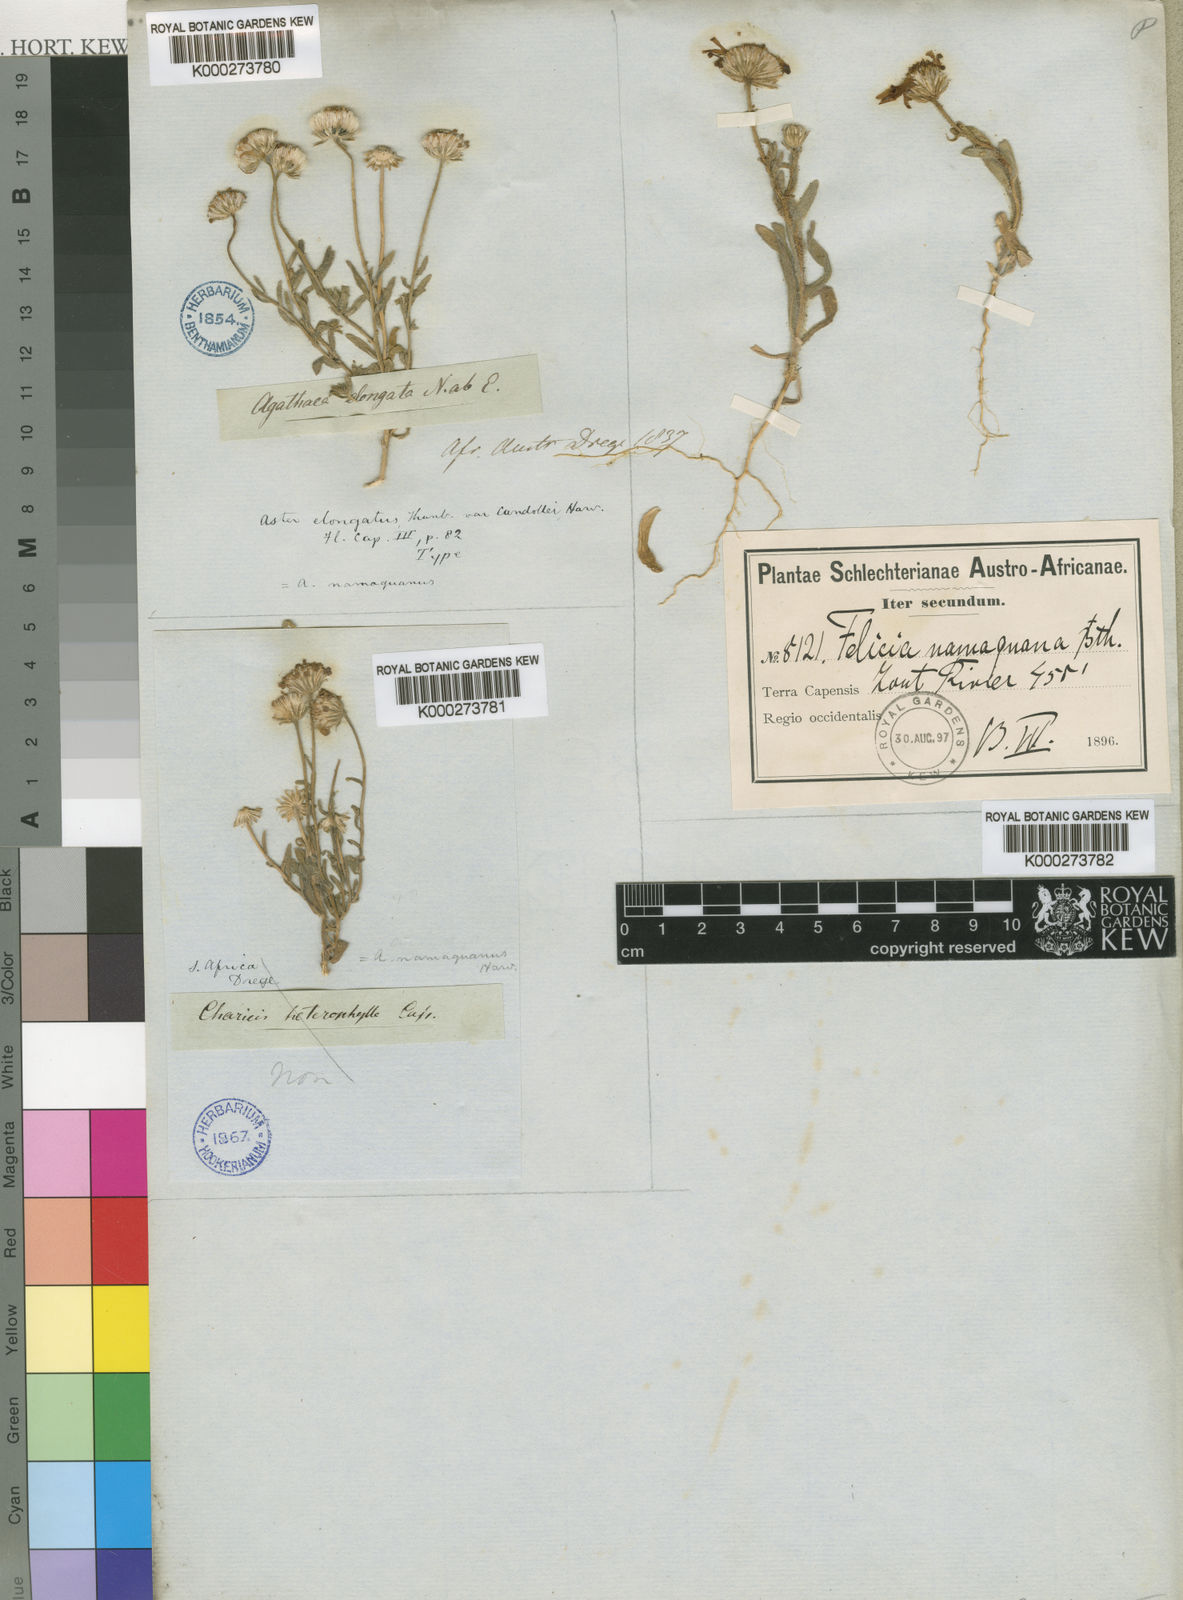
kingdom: Plantae
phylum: Tracheophyta
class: Magnoliopsida
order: Asterales
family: Asteraceae
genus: Felicia
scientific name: Felicia namaquana
